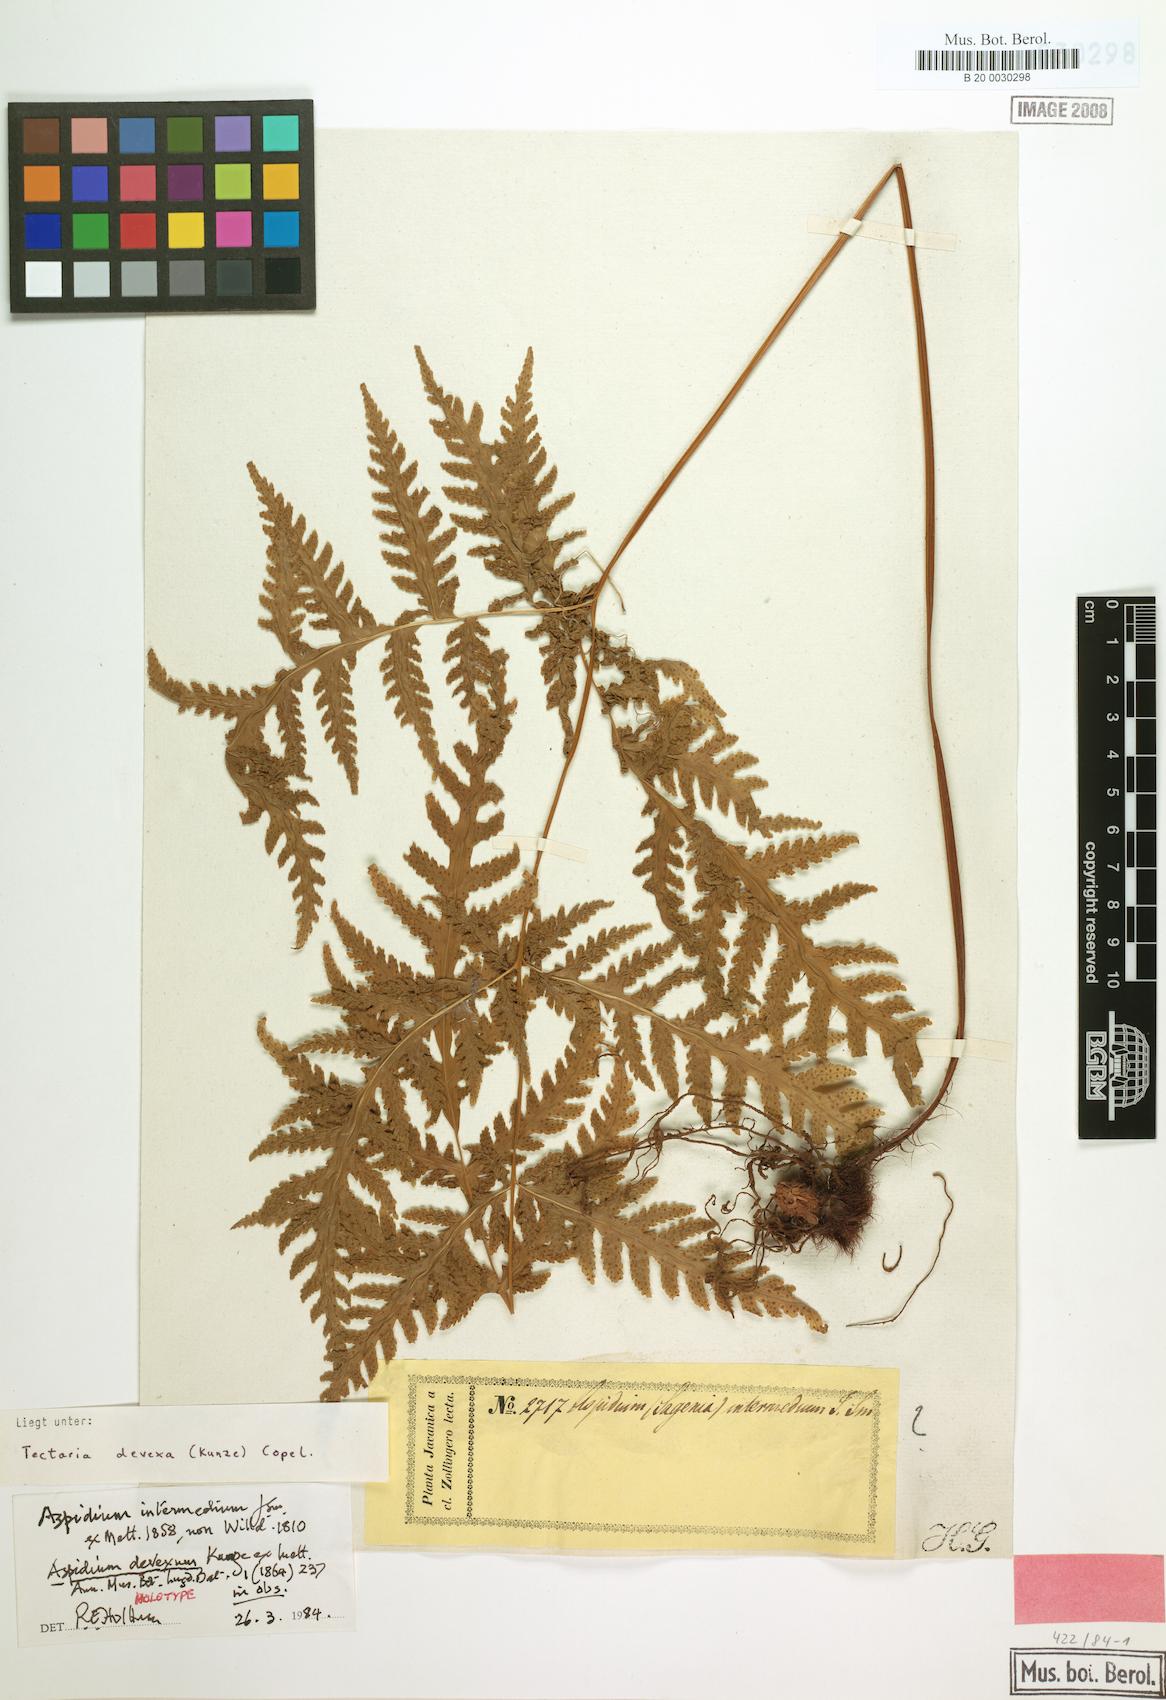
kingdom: Plantae
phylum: Tracheophyta
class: Polypodiopsida
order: Polypodiales
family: Tectariaceae
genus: Tectaria
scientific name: Tectaria membranacea
